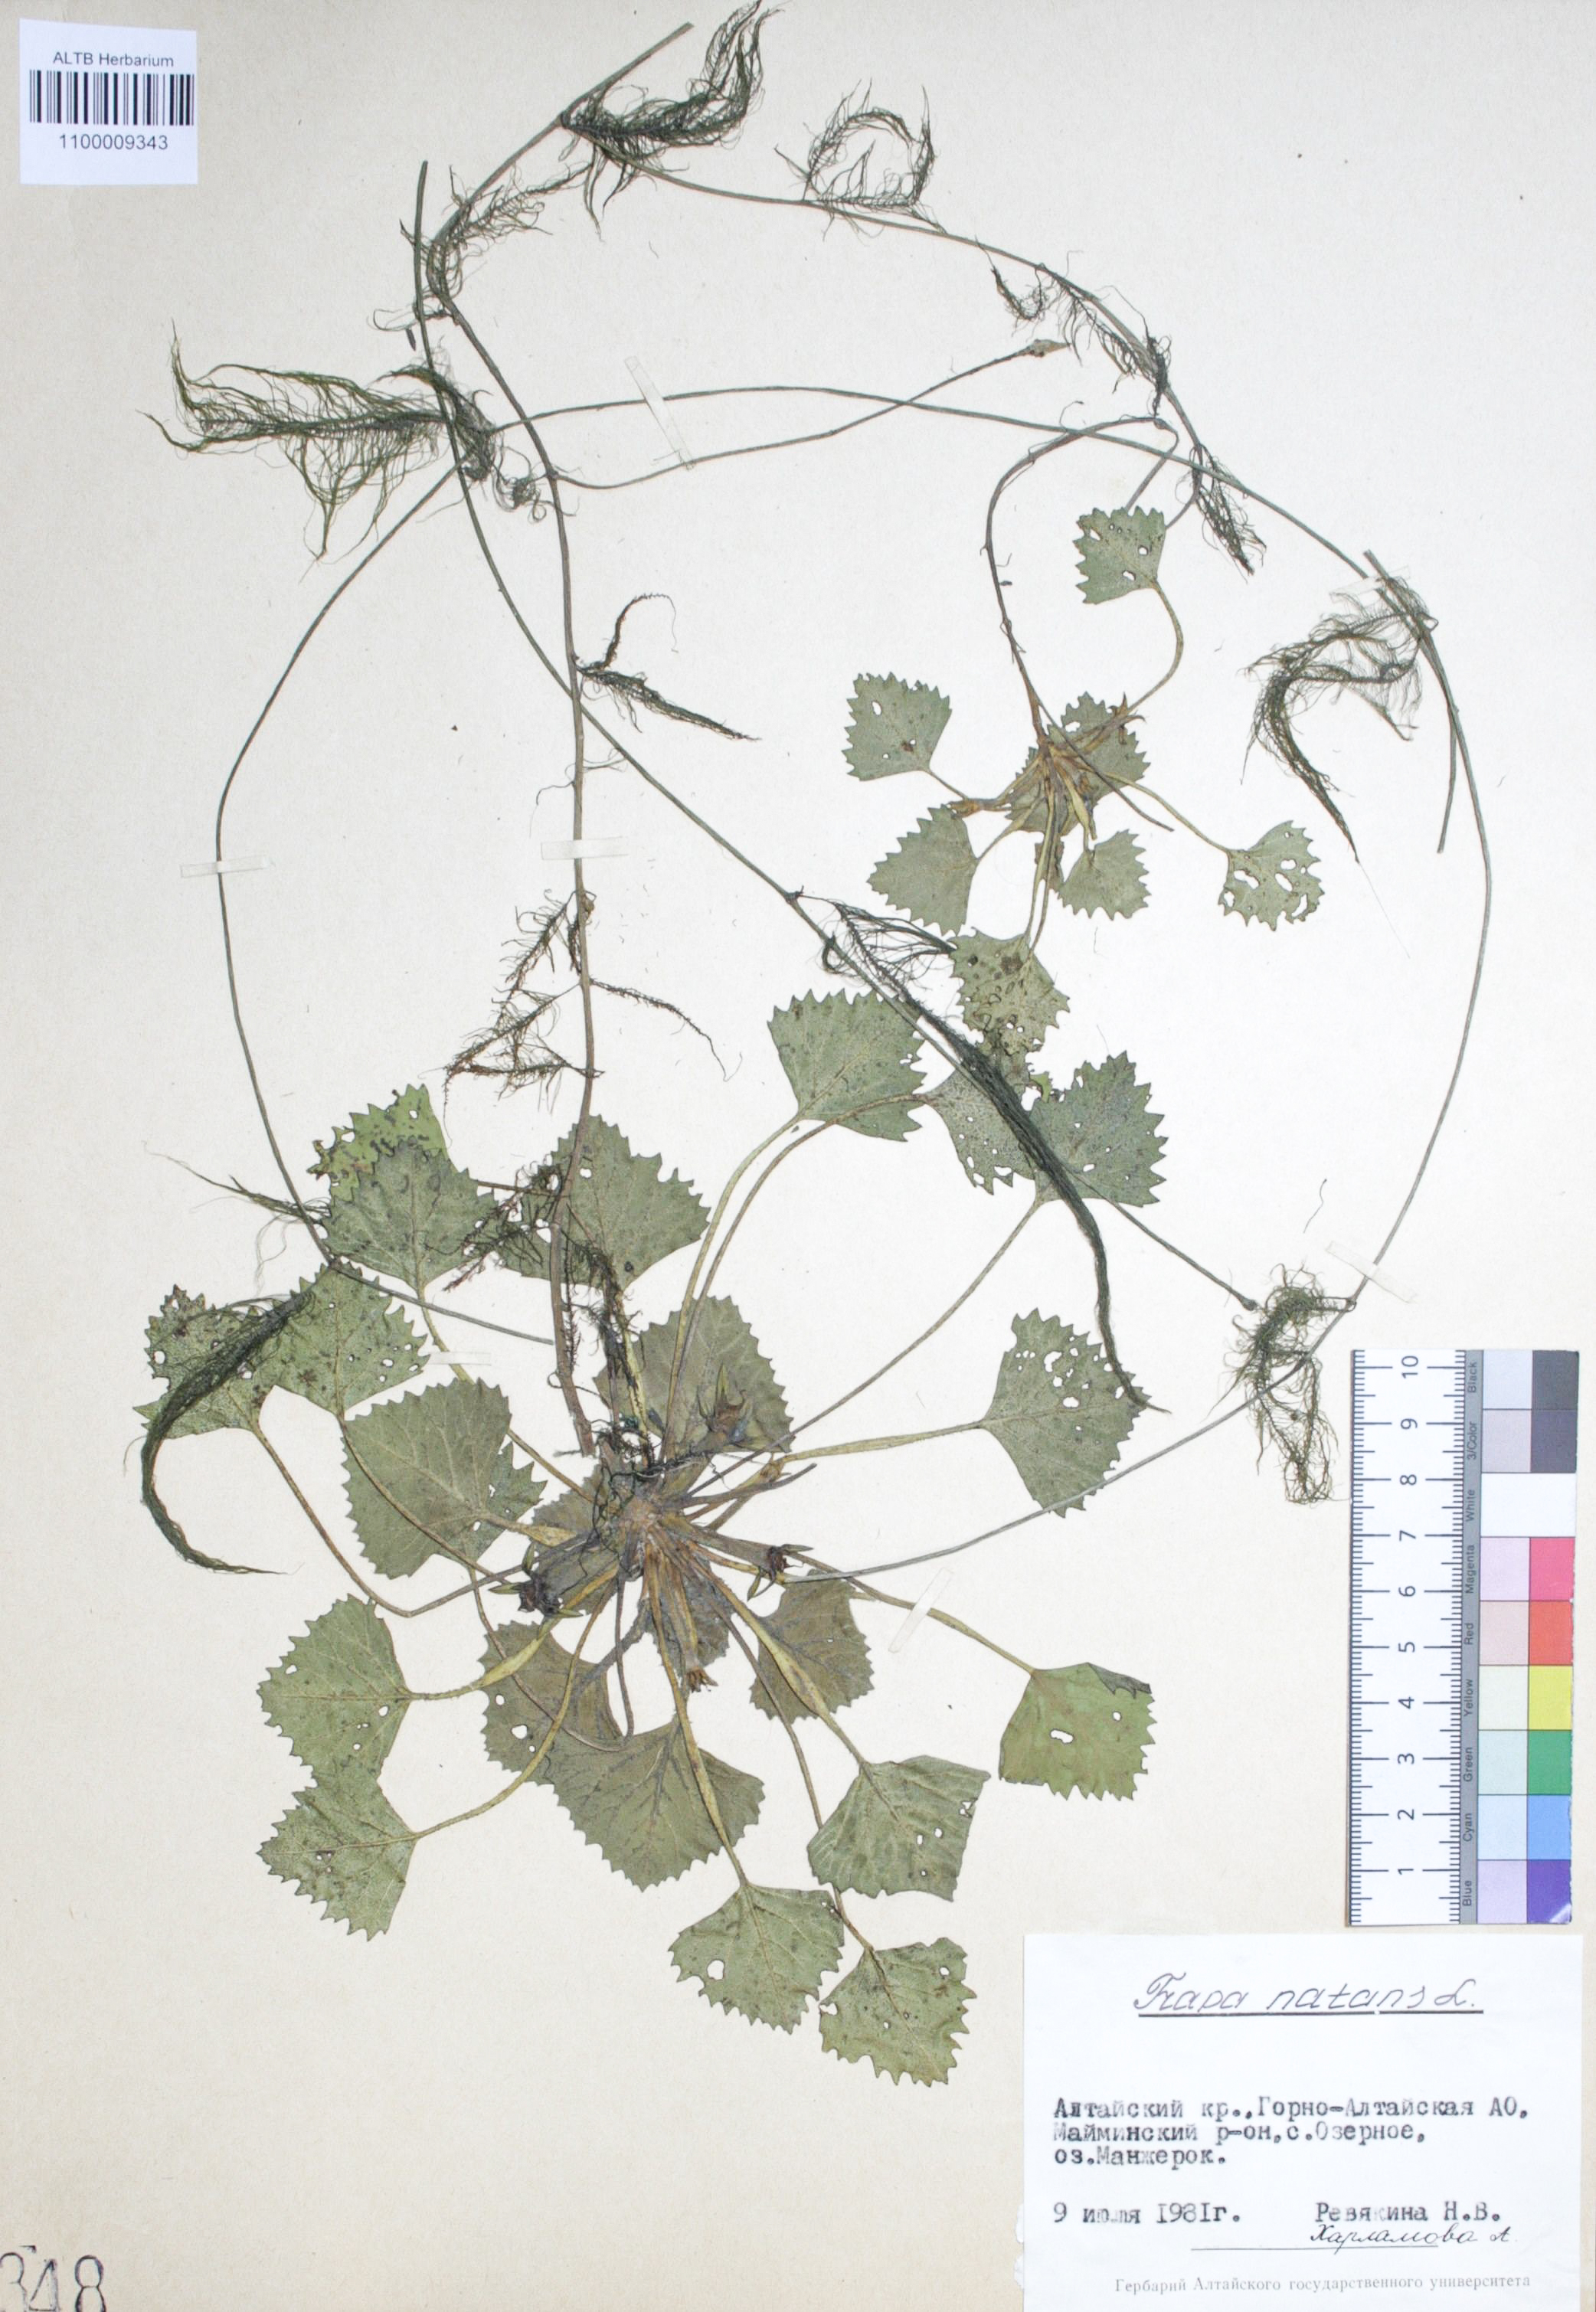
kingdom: Plantae
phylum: Tracheophyta
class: Magnoliopsida
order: Myrtales
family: Lythraceae
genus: Trapa
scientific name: Trapa natans
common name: Water chestnut
